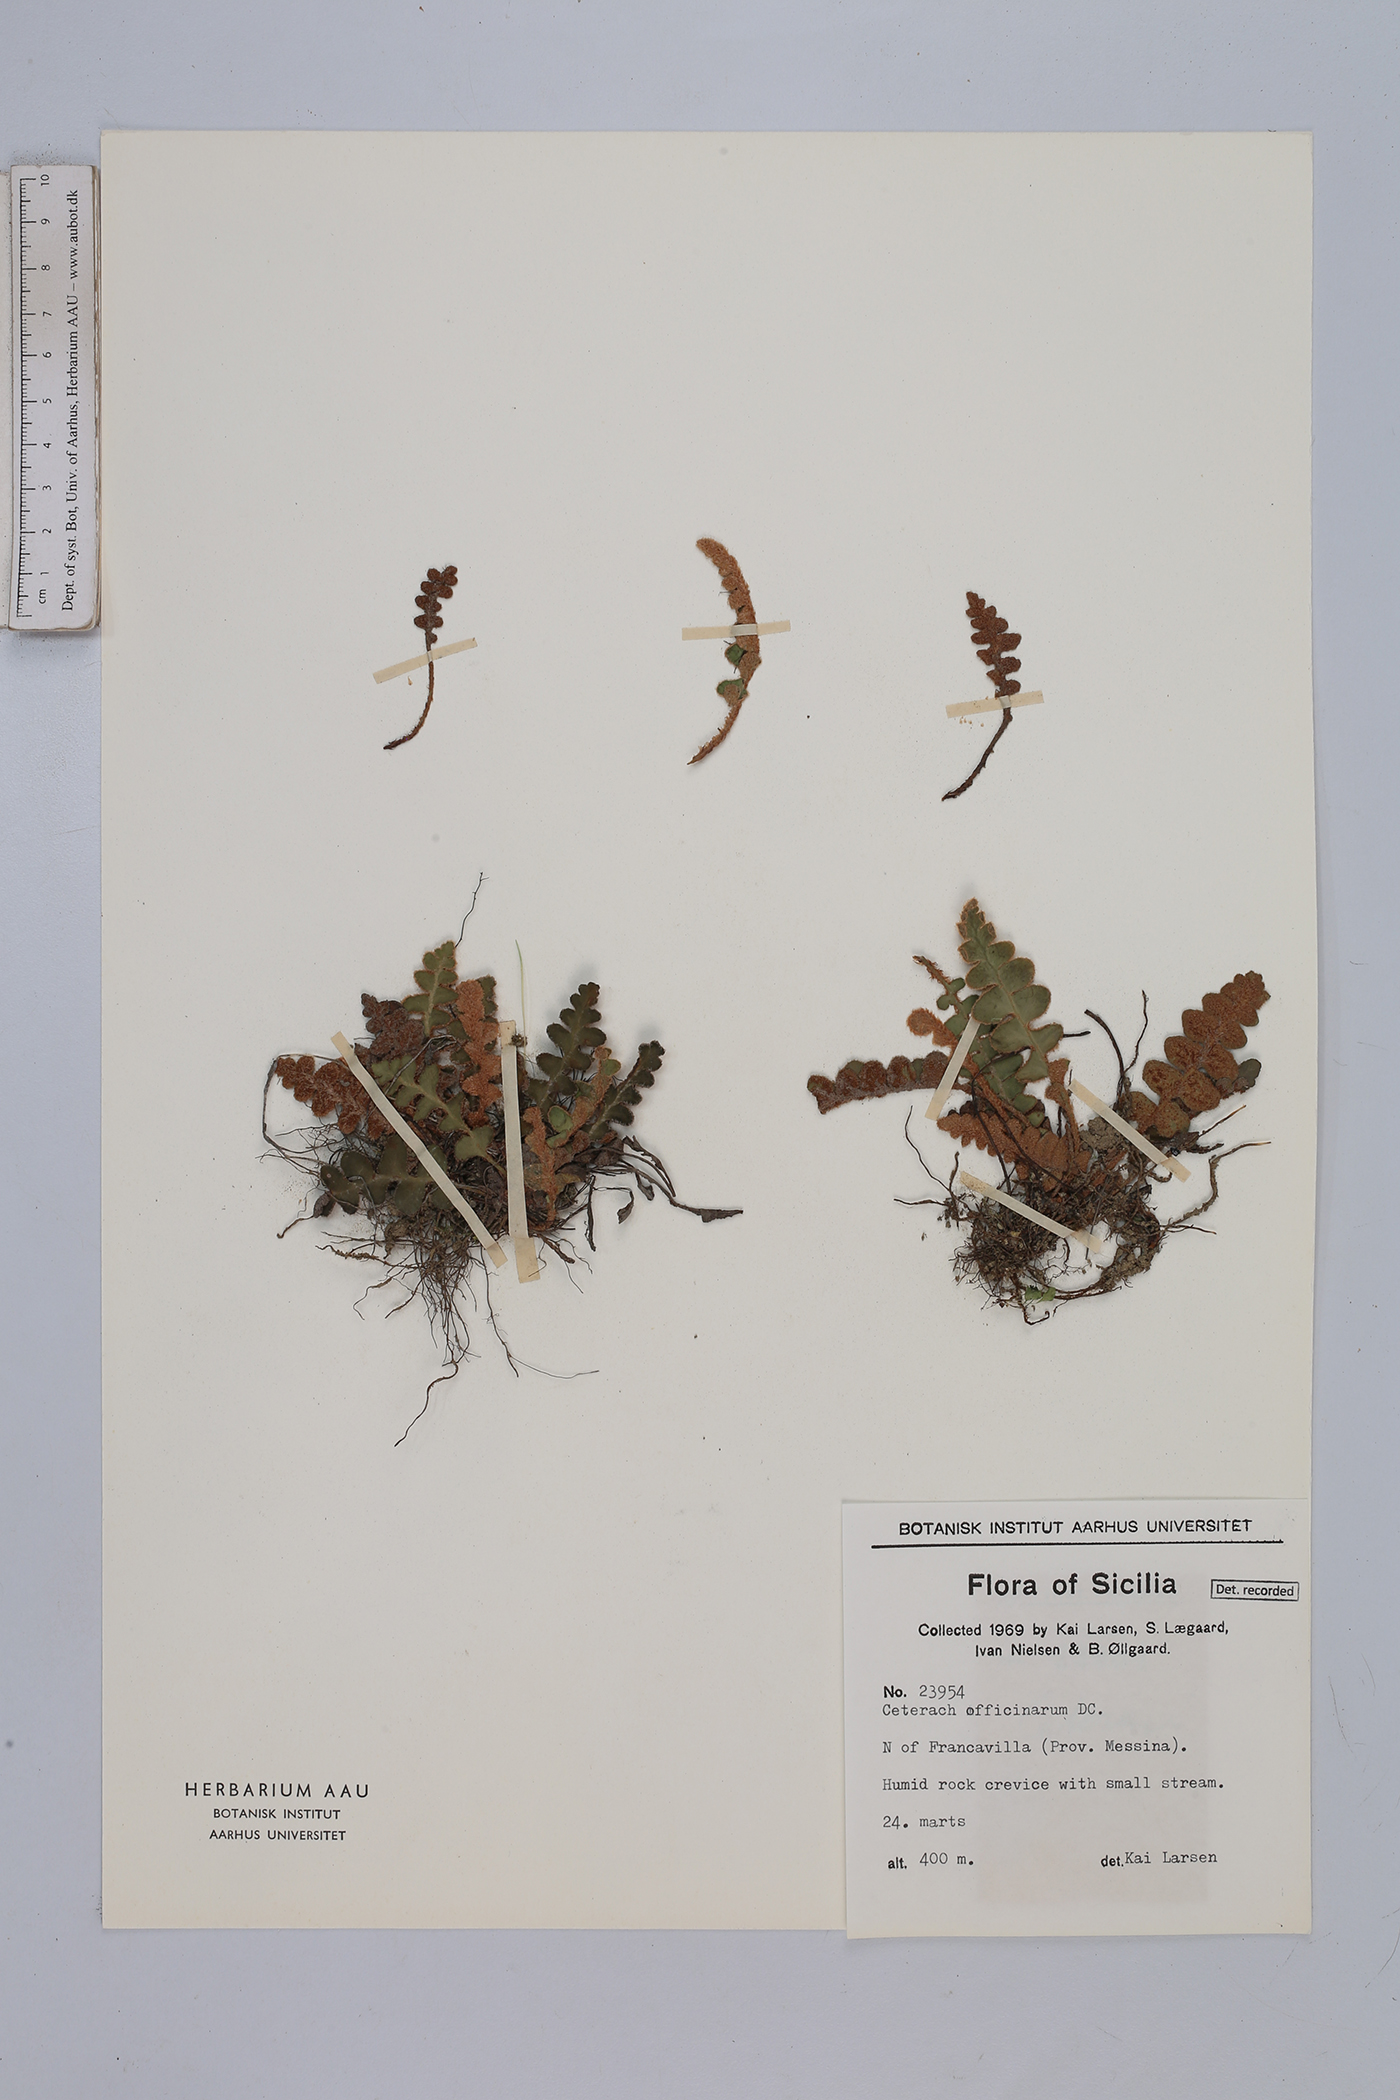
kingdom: Plantae
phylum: Tracheophyta
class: Polypodiopsida
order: Polypodiales
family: Aspleniaceae
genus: Asplenium
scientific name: Asplenium ceterach
